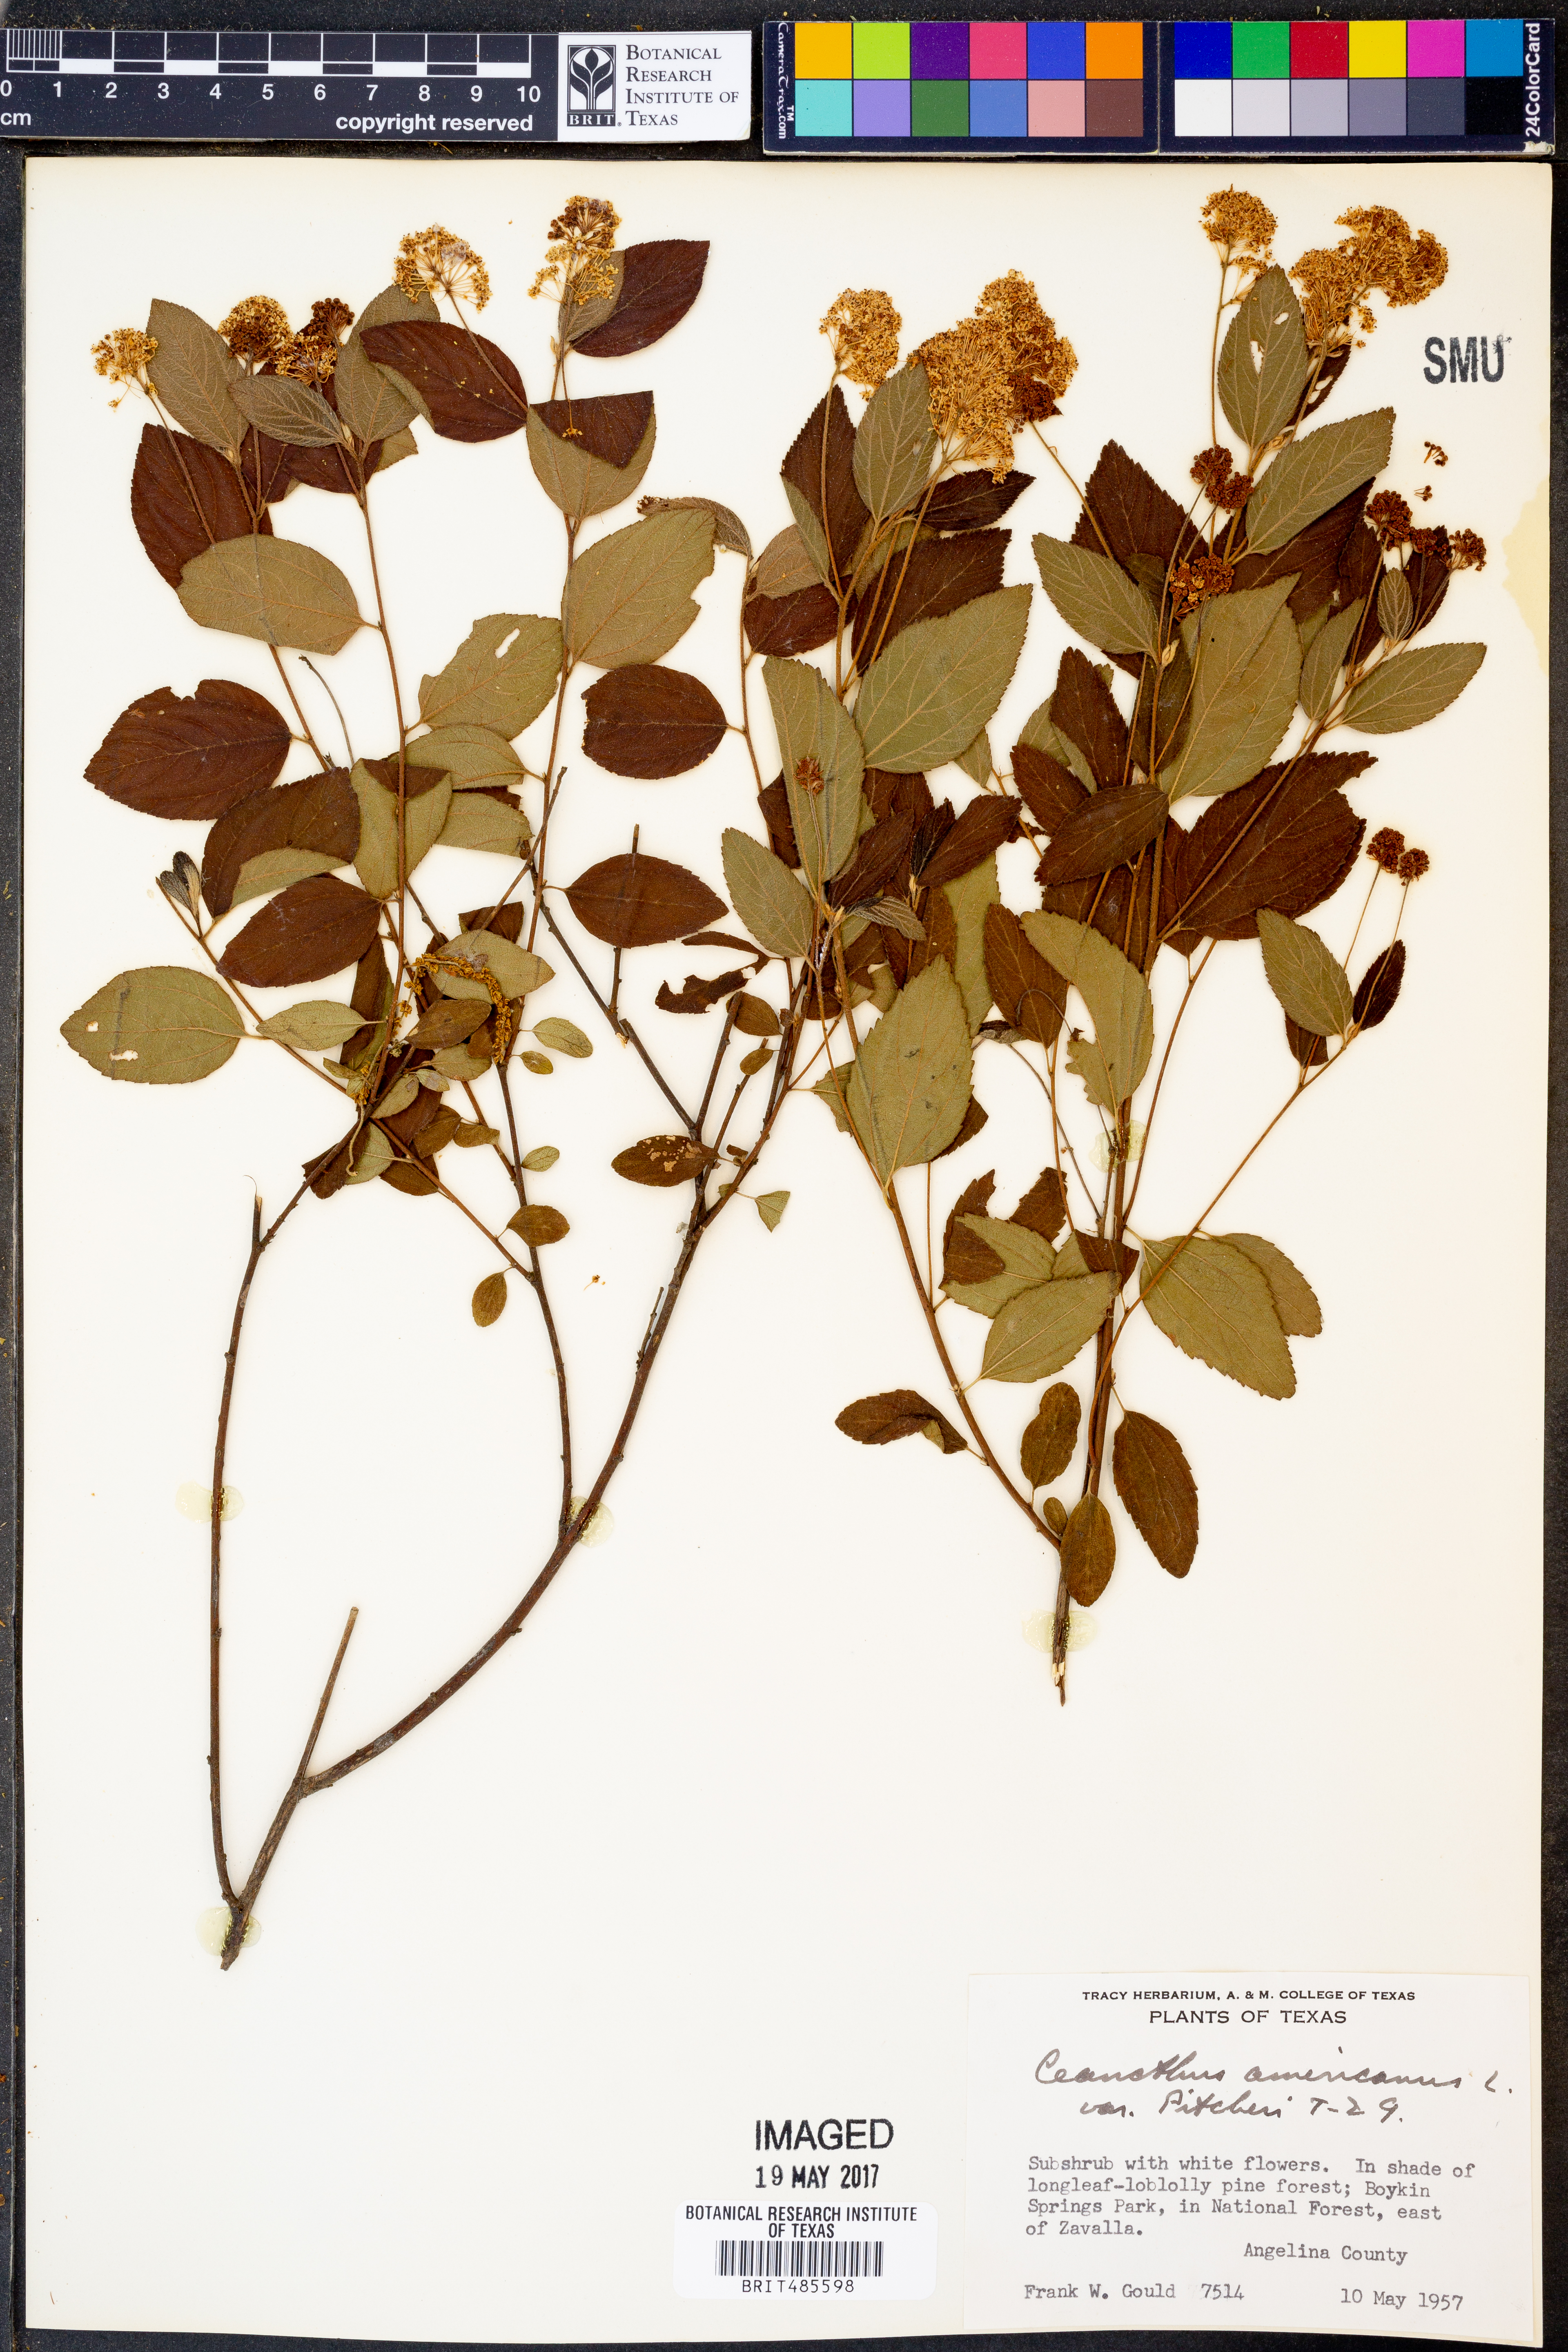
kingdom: Plantae
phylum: Tracheophyta
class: Magnoliopsida
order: Rosales
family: Rhamnaceae
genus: Ceanothus
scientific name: Ceanothus americanus
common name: Redroot
